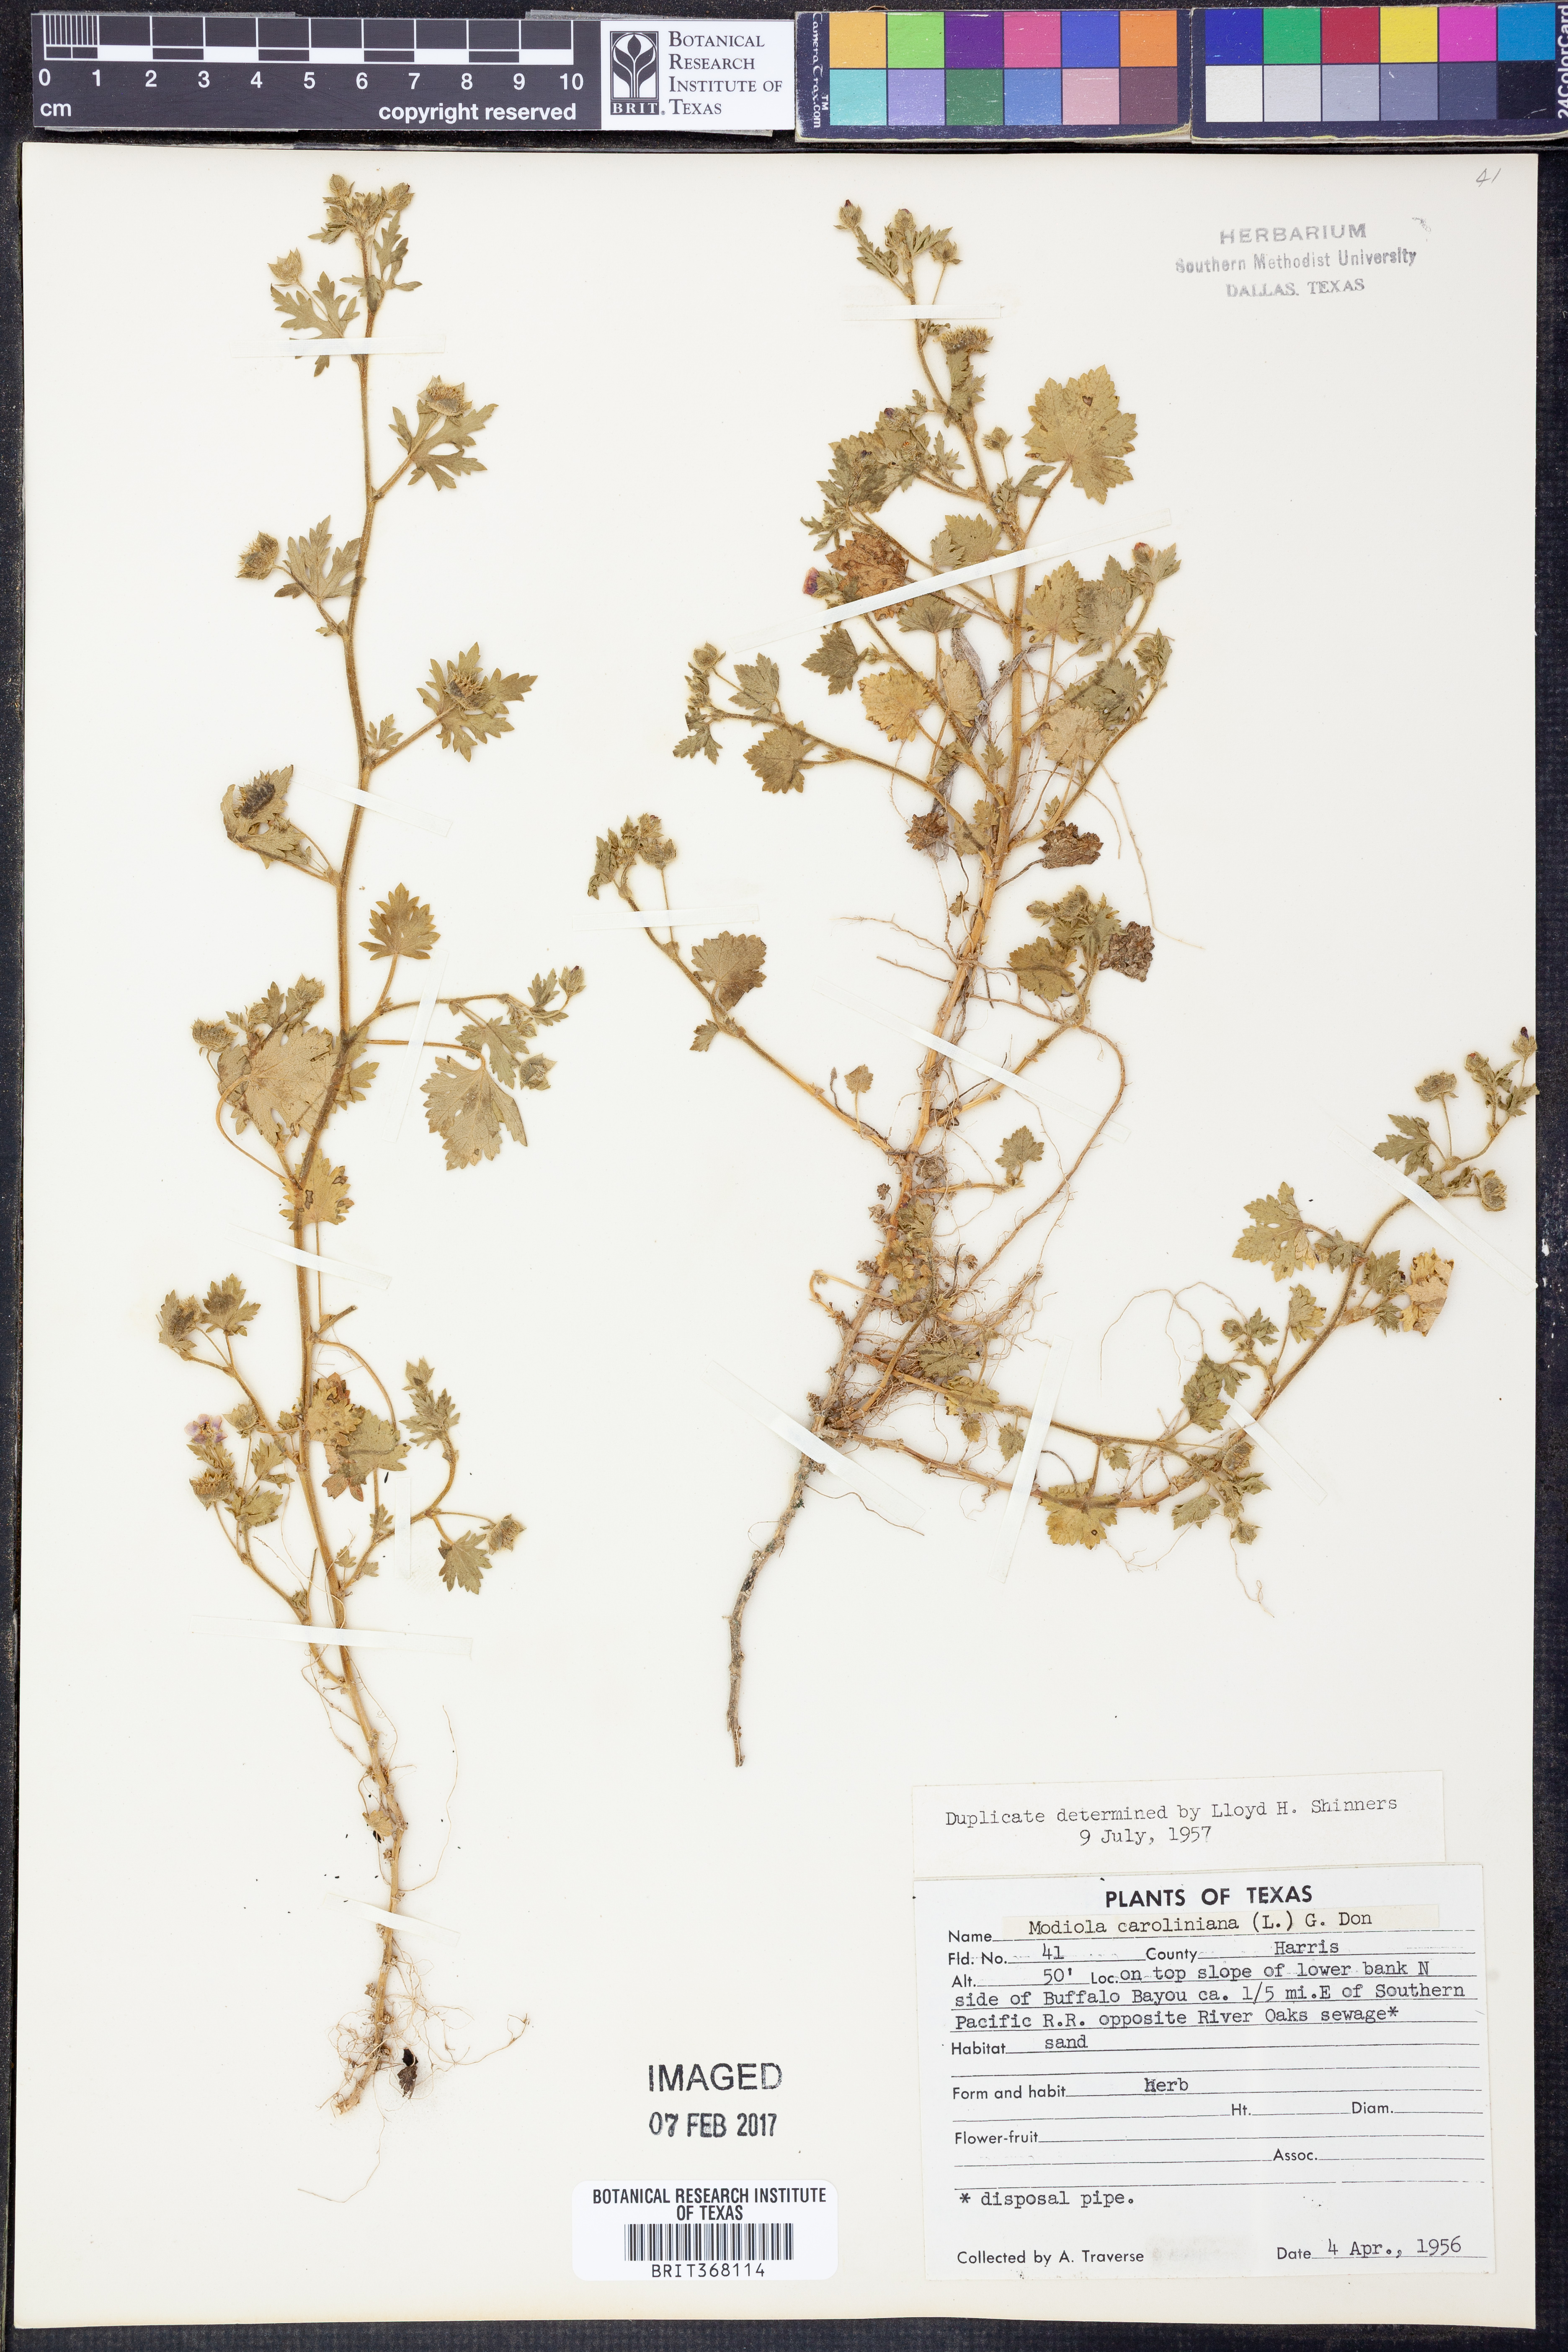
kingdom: Plantae
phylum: Tracheophyta
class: Magnoliopsida
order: Malvales
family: Malvaceae
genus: Modiola
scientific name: Modiola caroliniana
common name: Carolina bristlemallow
